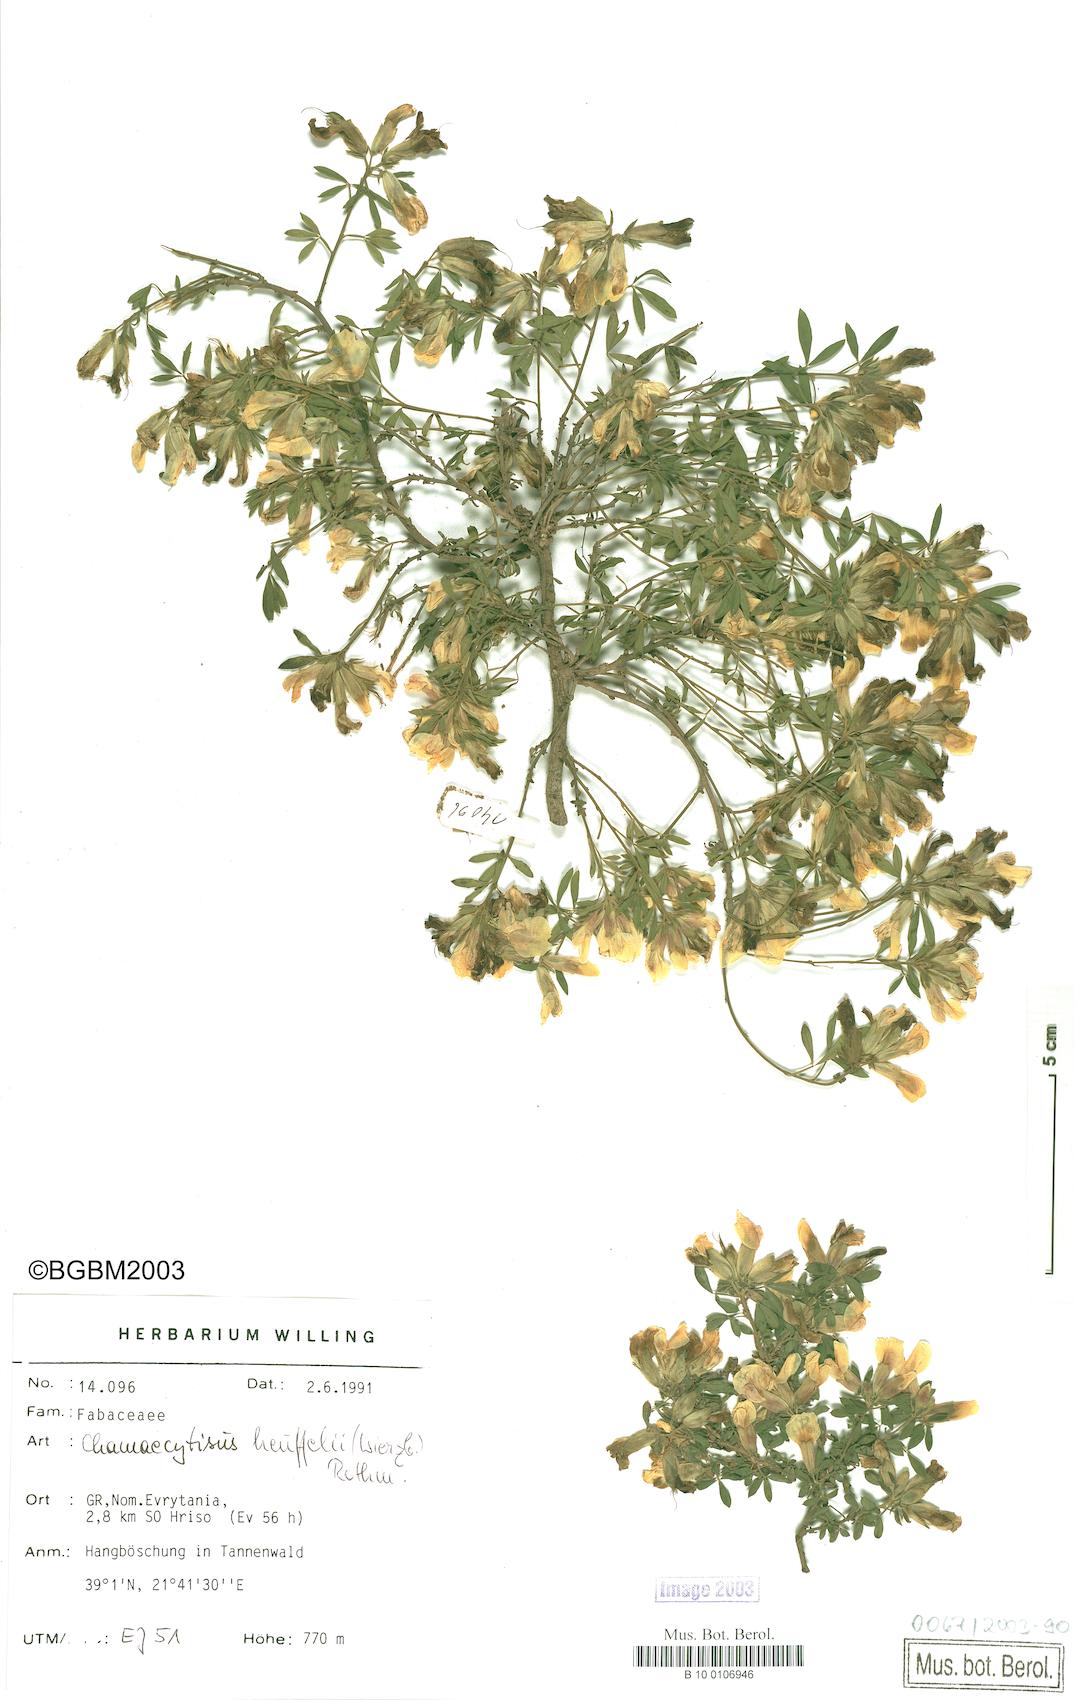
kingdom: Plantae
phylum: Tracheophyta
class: Magnoliopsida
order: Fabales
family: Fabaceae
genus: Chamaecytisus
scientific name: Chamaecytisus heuffelii
